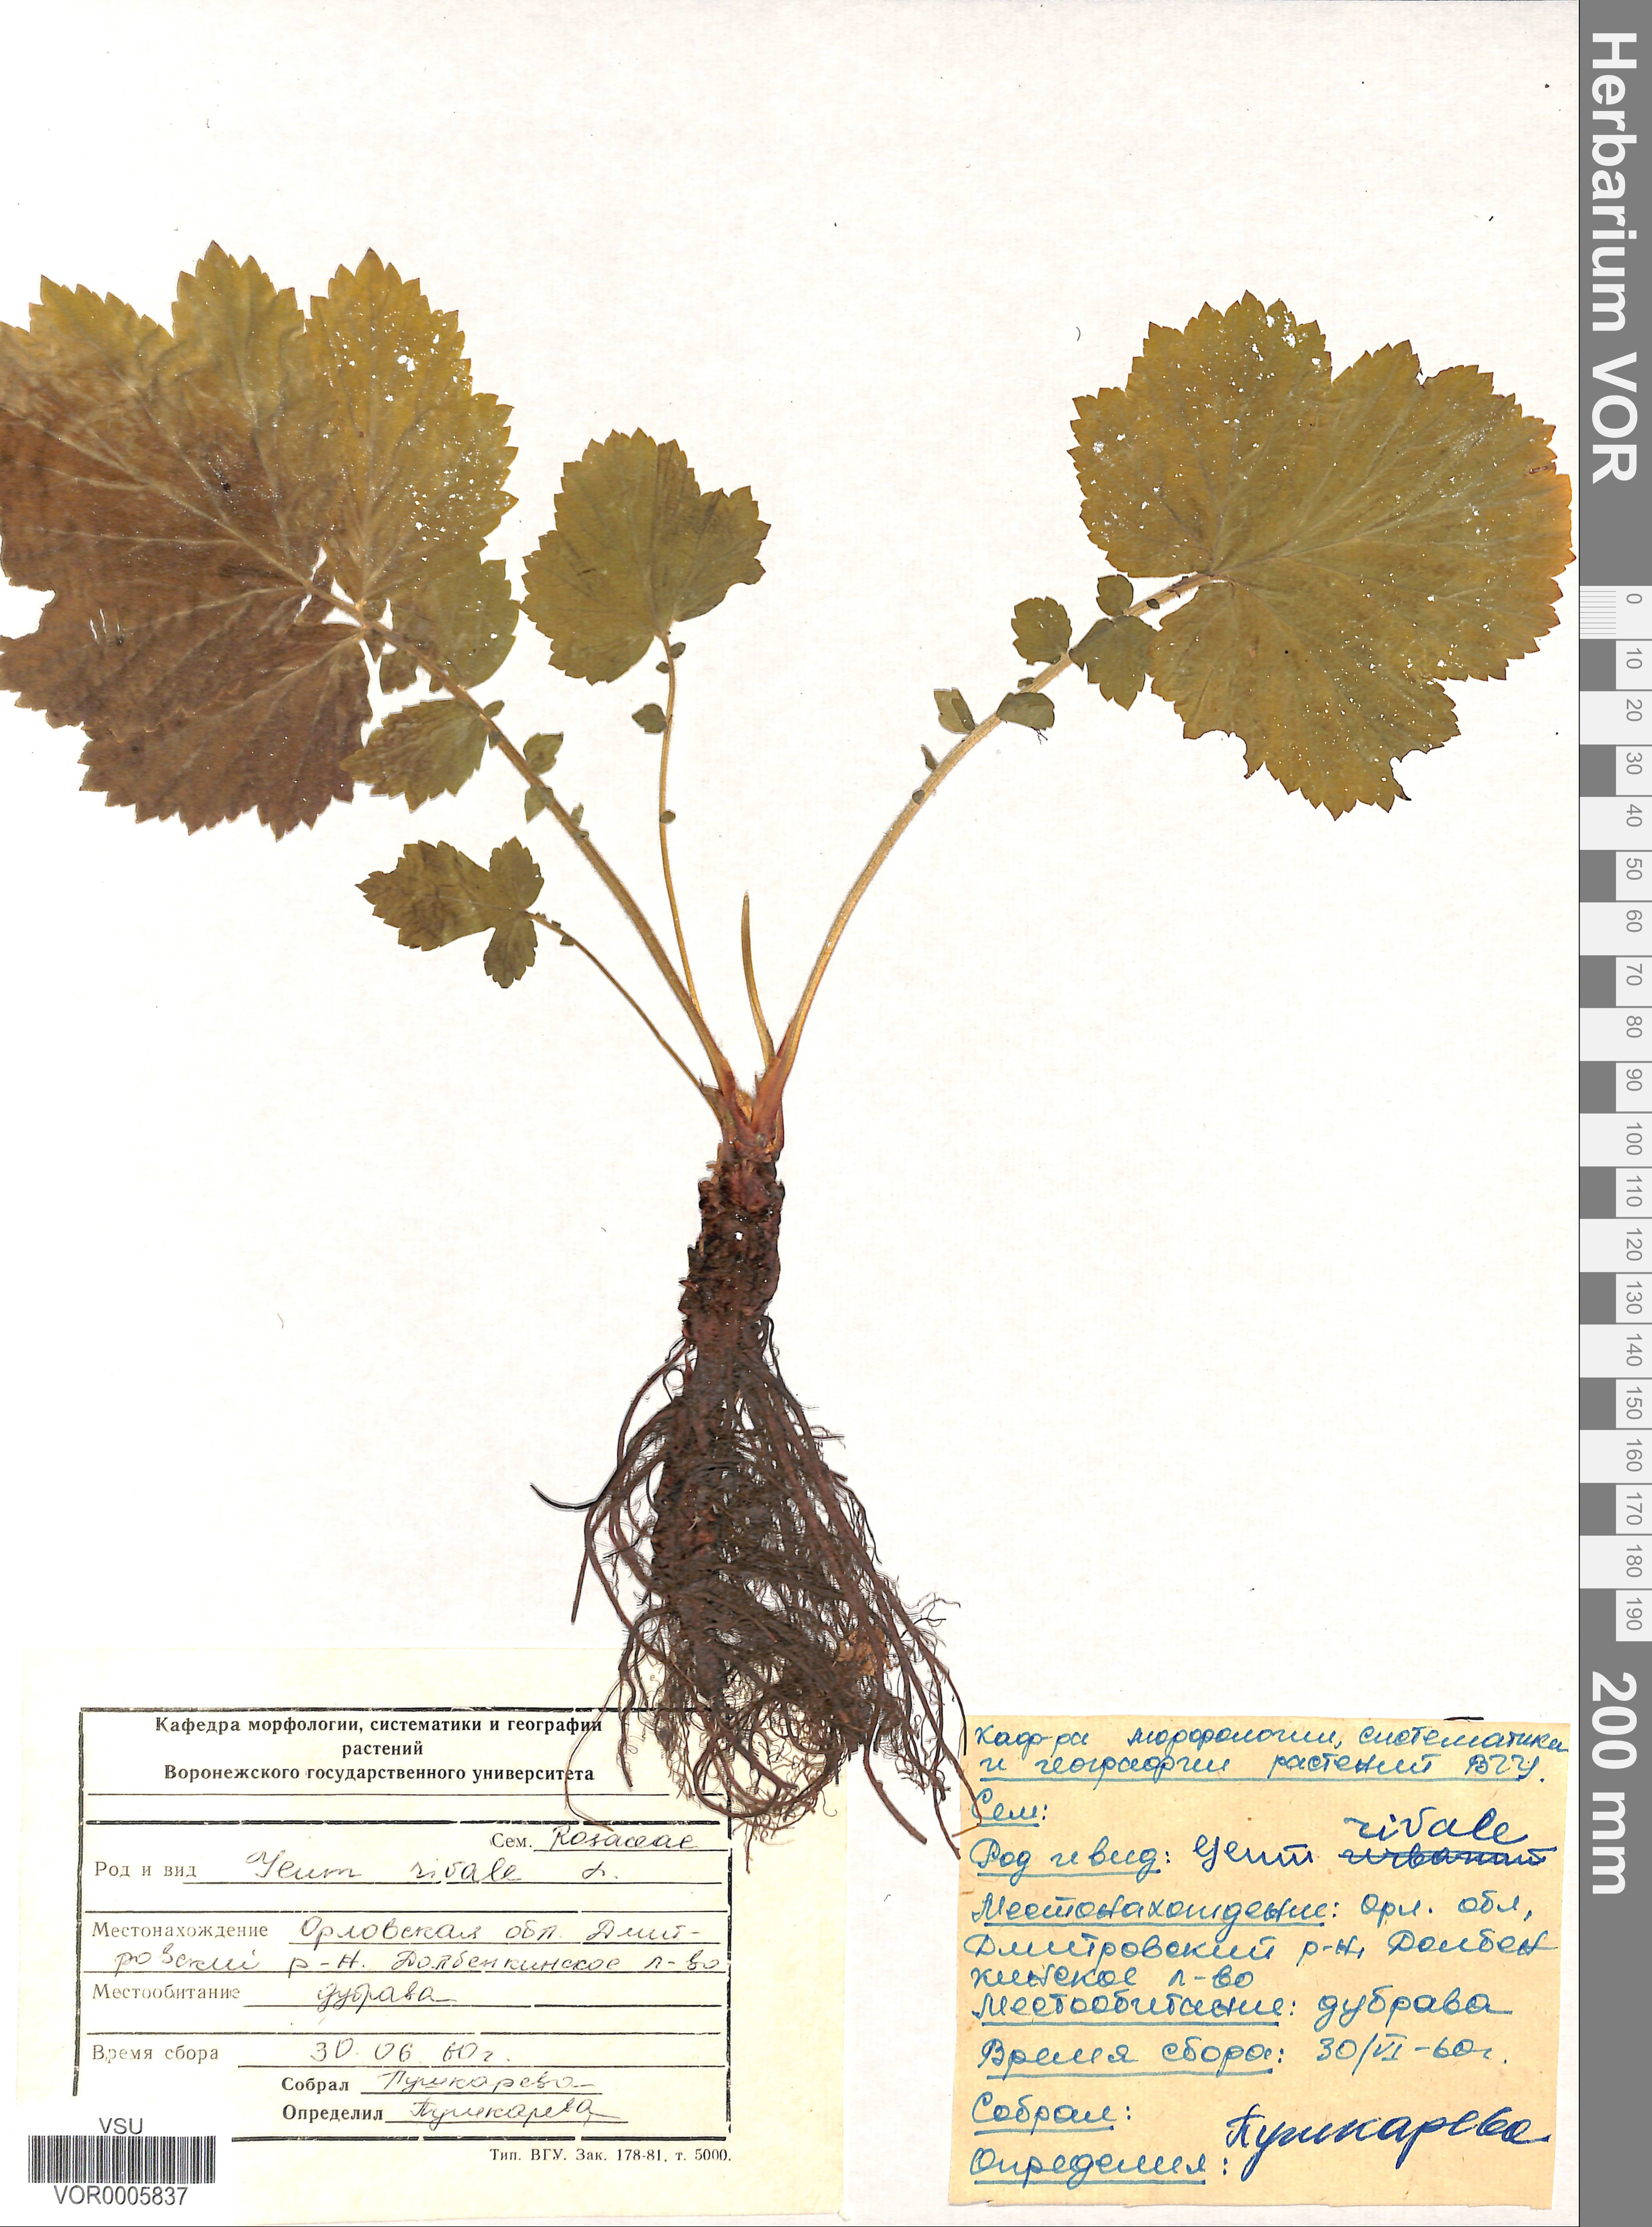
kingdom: Plantae
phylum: Tracheophyta
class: Magnoliopsida
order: Rosales
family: Rosaceae
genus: Geum
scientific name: Geum rivale
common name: Water avens
